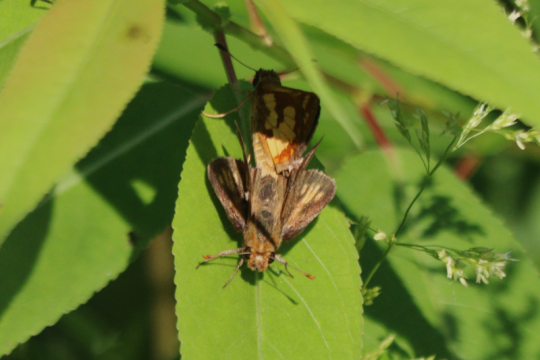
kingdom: Animalia
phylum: Arthropoda
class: Insecta
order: Lepidoptera
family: Hesperiidae
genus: Polites
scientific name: Polites coras
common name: Peck's Skipper
